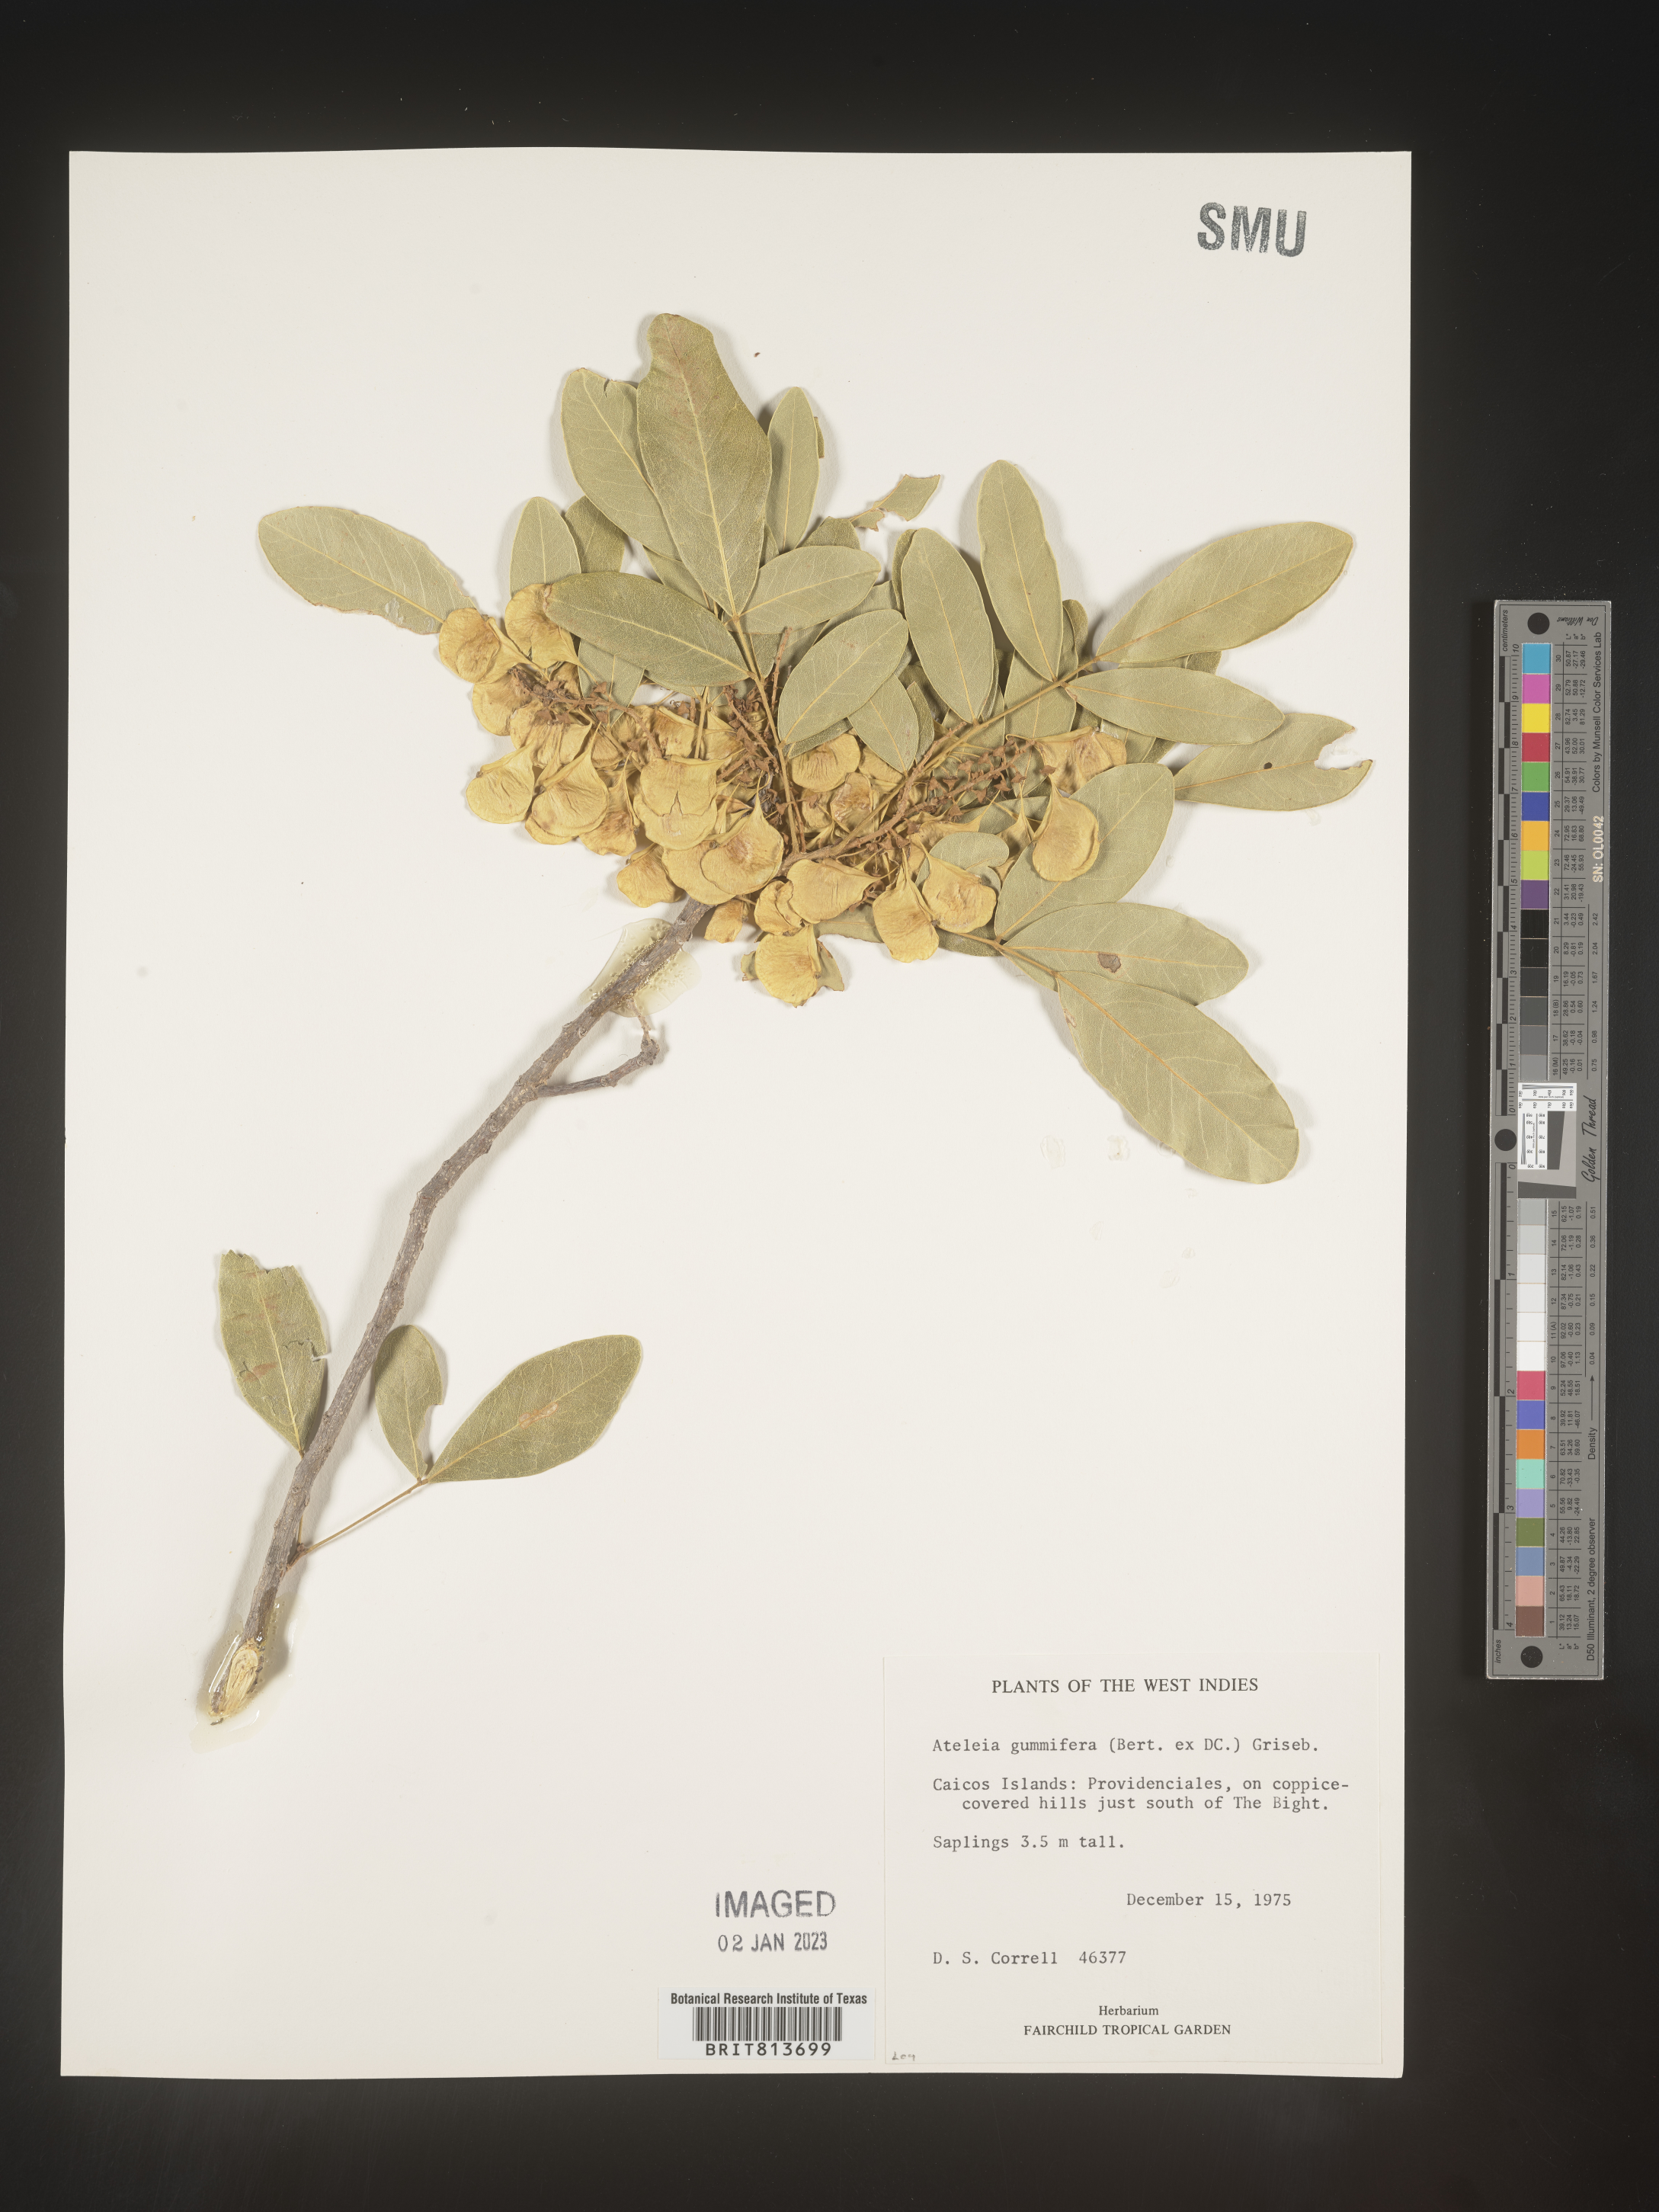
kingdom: Plantae
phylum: Tracheophyta
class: Magnoliopsida
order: Fabales
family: Fabaceae
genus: Ateleia
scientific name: Ateleia
